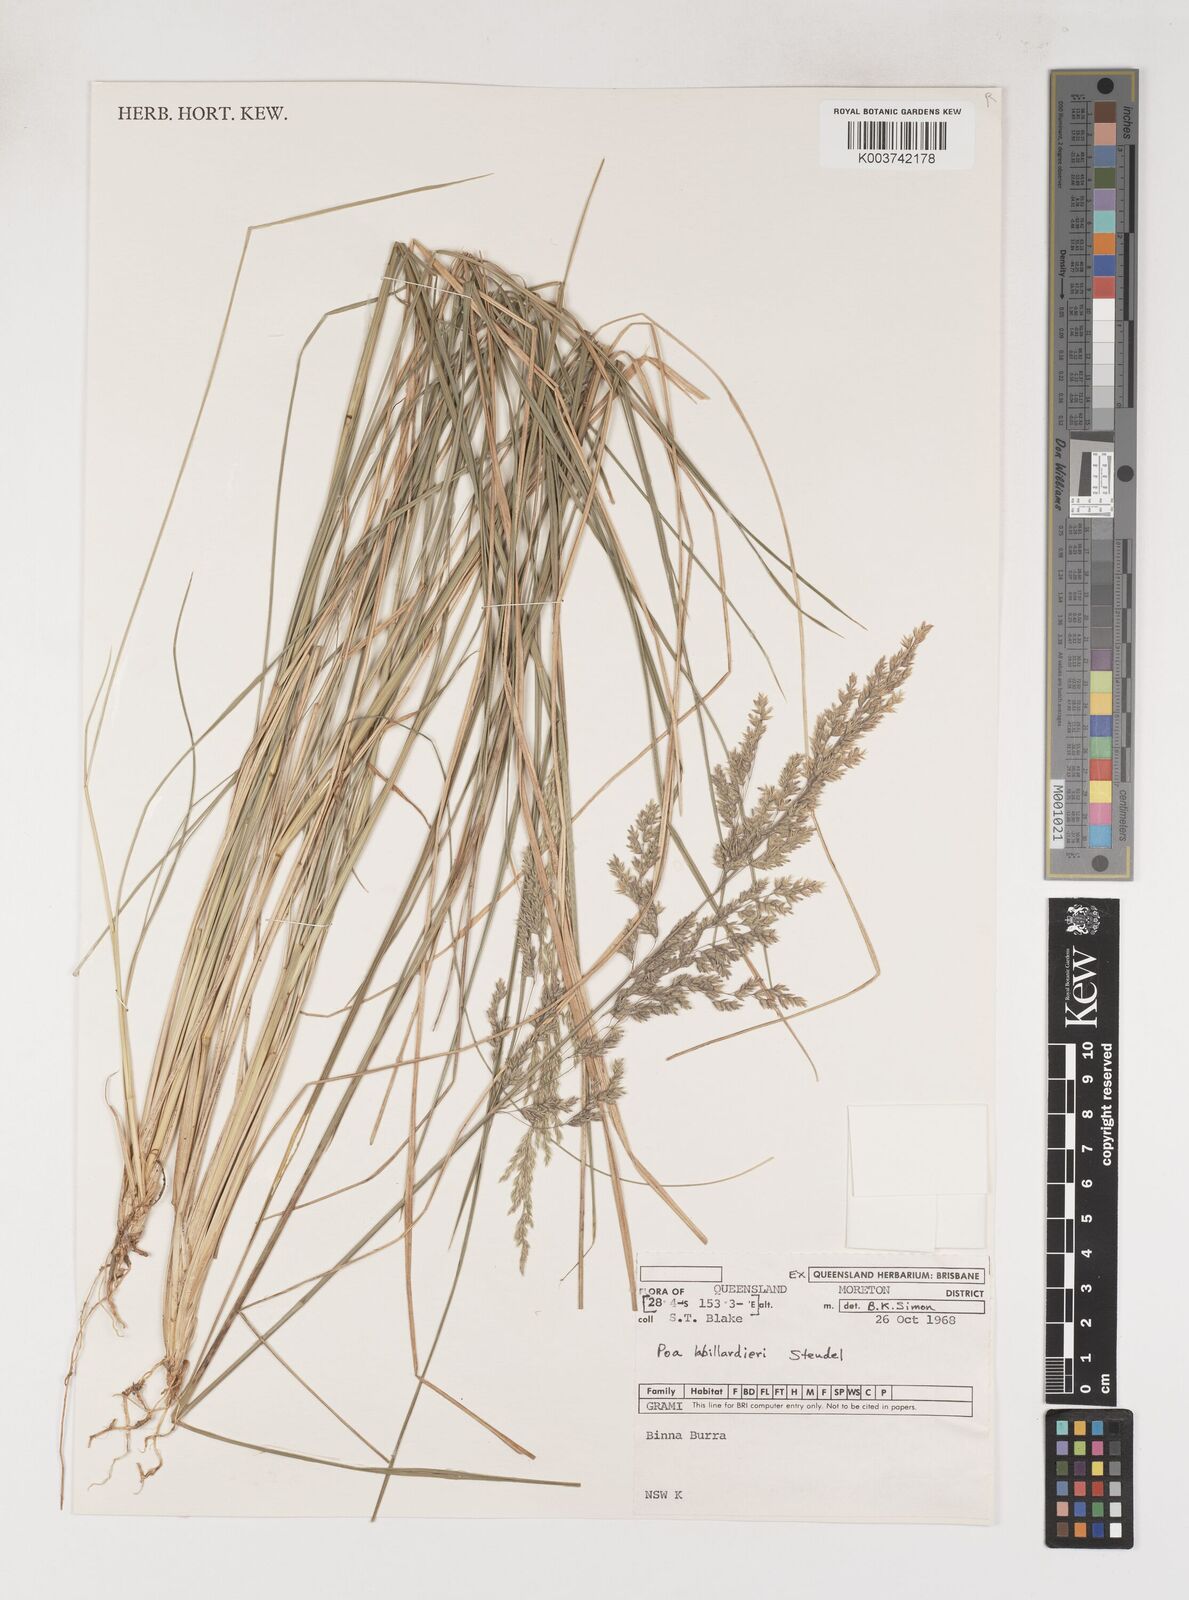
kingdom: Plantae
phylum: Tracheophyta
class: Liliopsida
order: Poales
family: Poaceae
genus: Poa
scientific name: Poa labillardierei
